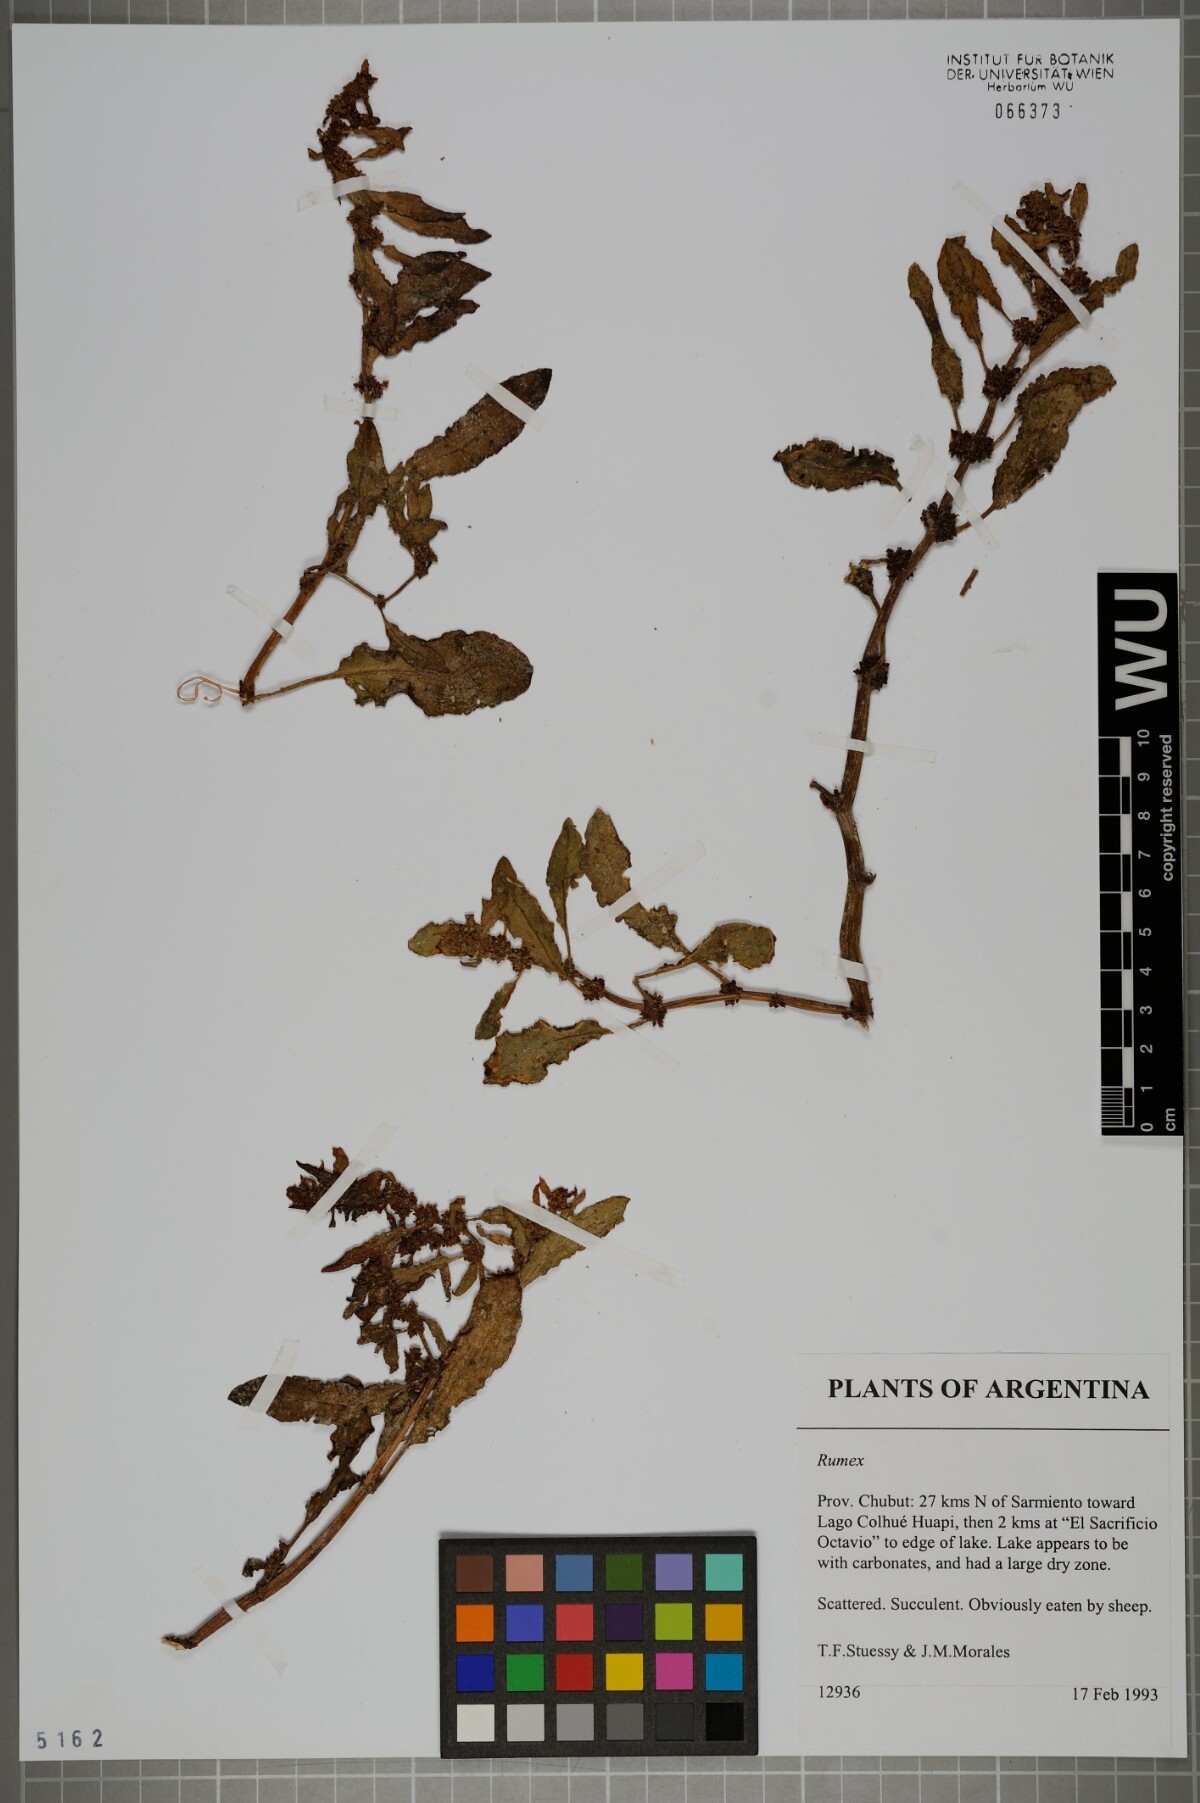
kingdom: Plantae
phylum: Tracheophyta
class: Magnoliopsida
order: Caryophyllales
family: Polygonaceae
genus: Rumex
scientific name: Rumex
